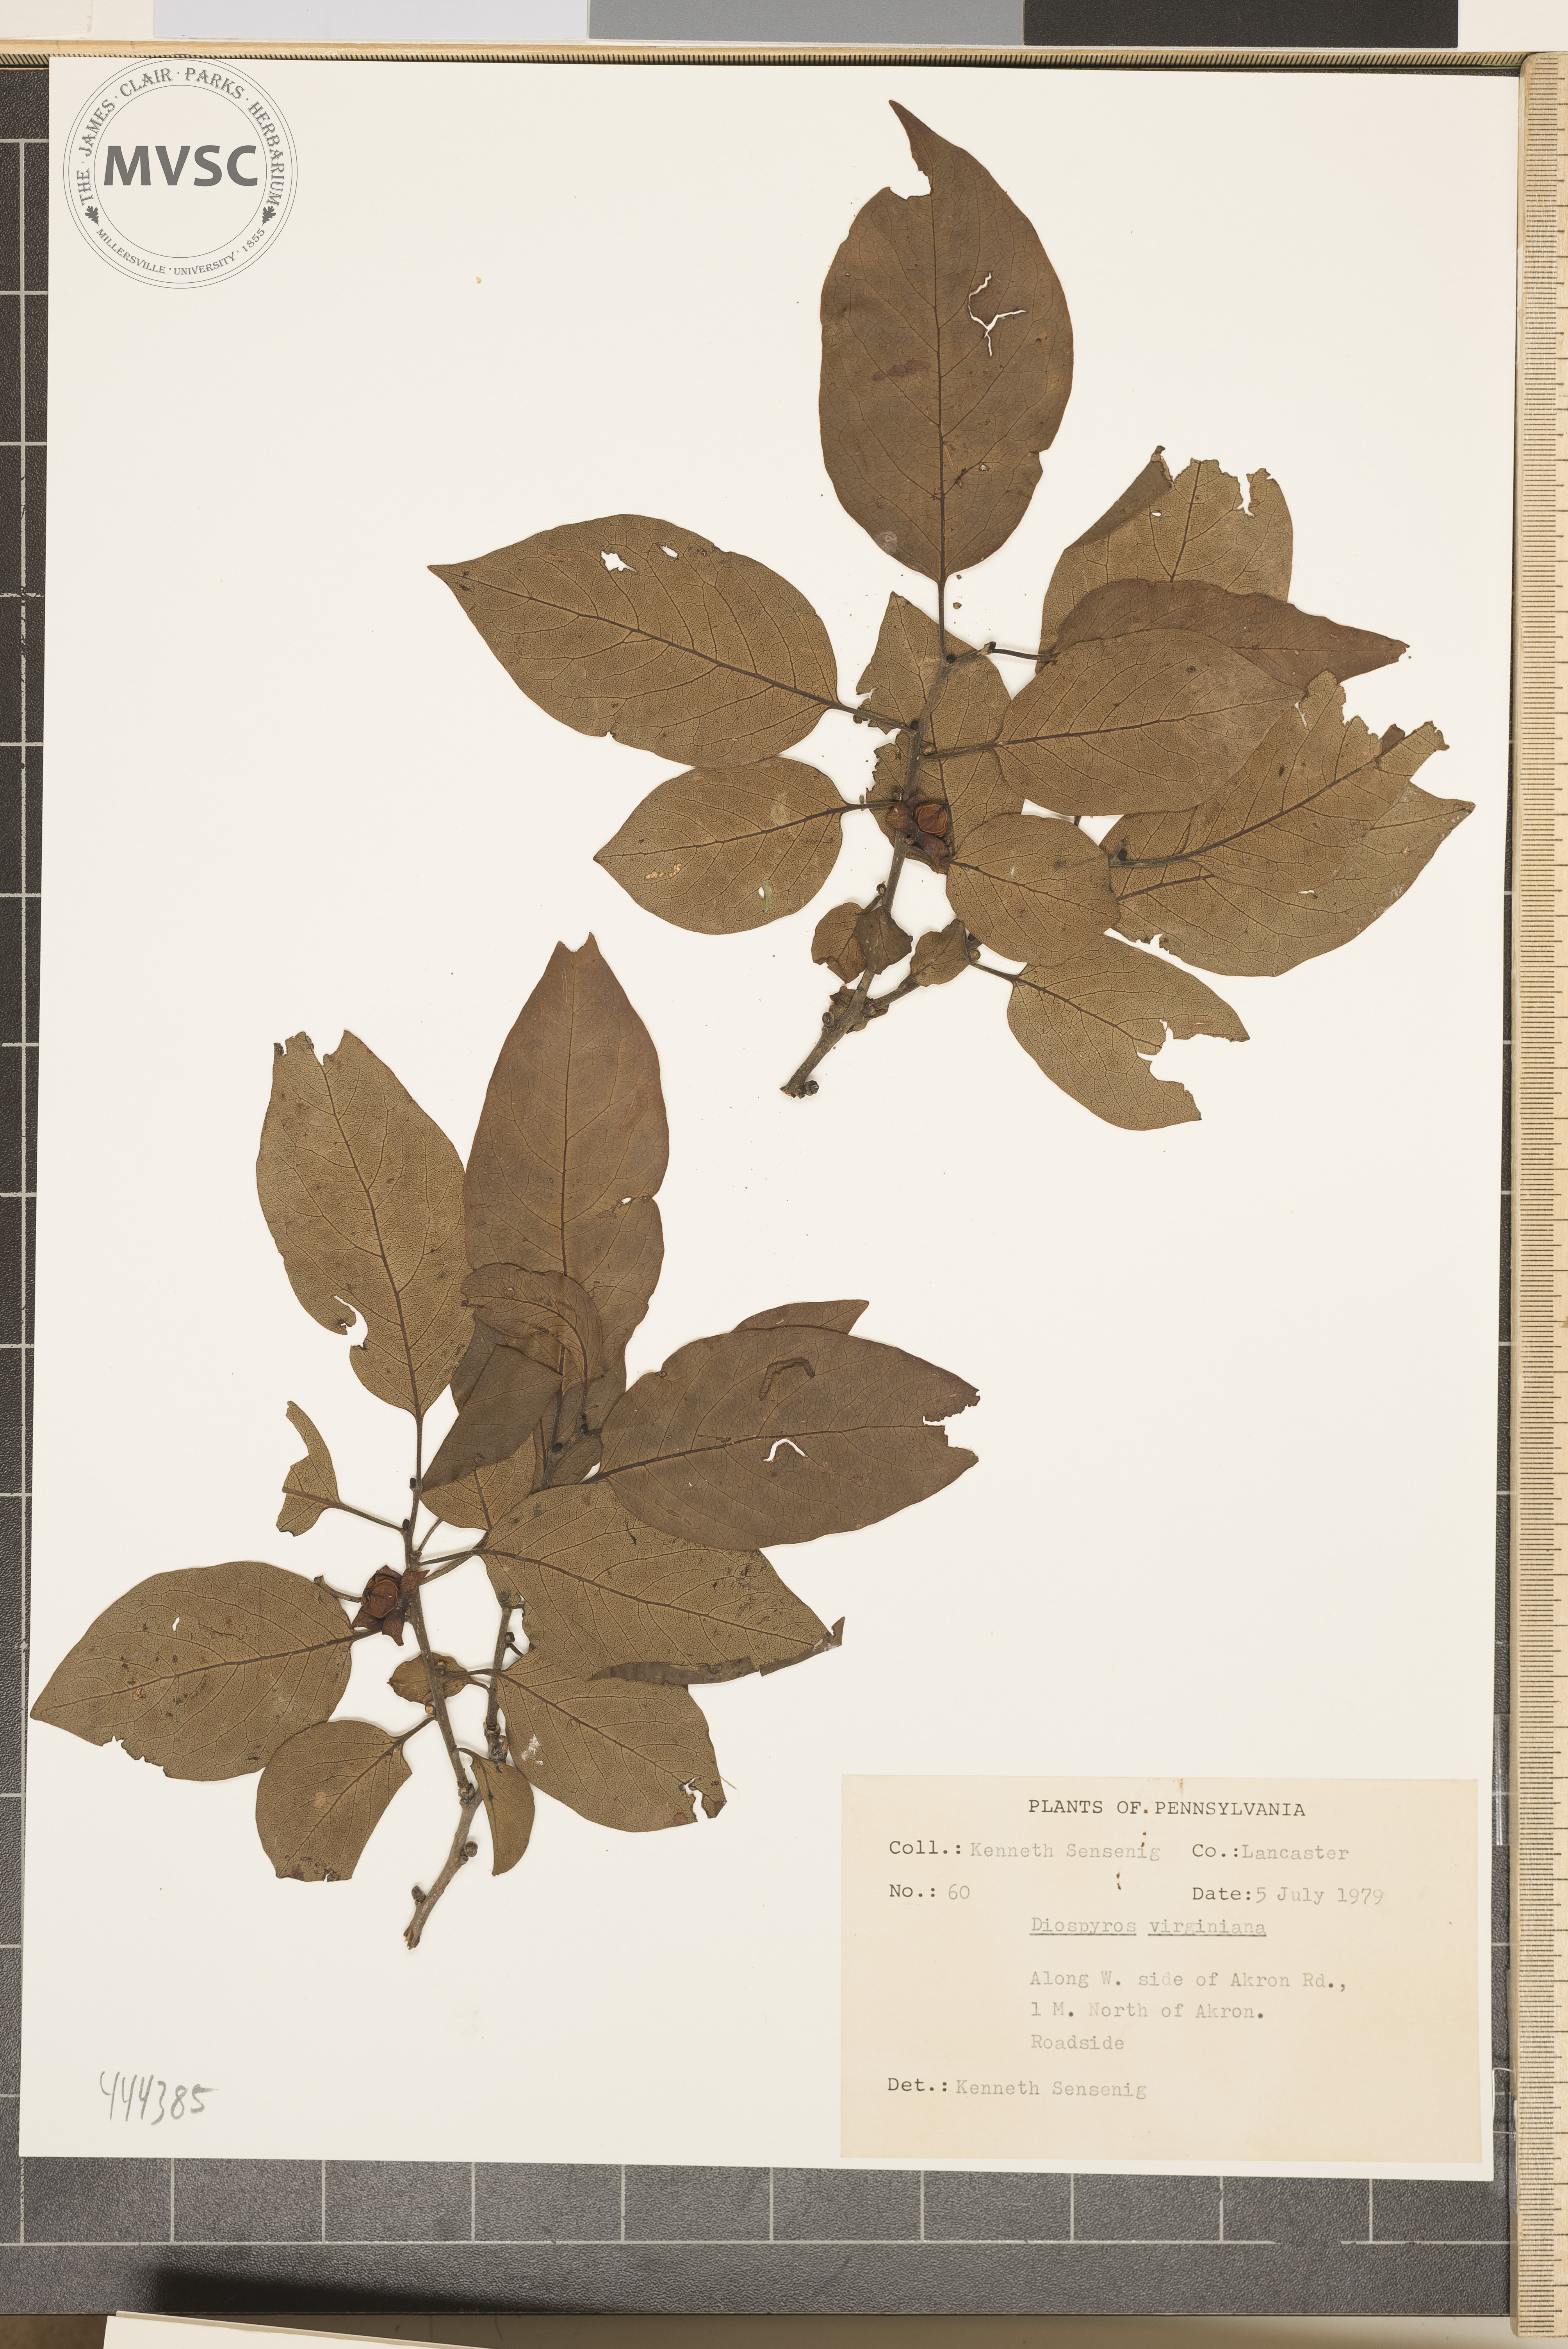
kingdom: Plantae
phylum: Tracheophyta
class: Magnoliopsida
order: Ericales
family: Ebenaceae
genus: Diospyros
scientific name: Diospyros virginiana
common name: Persimmon
